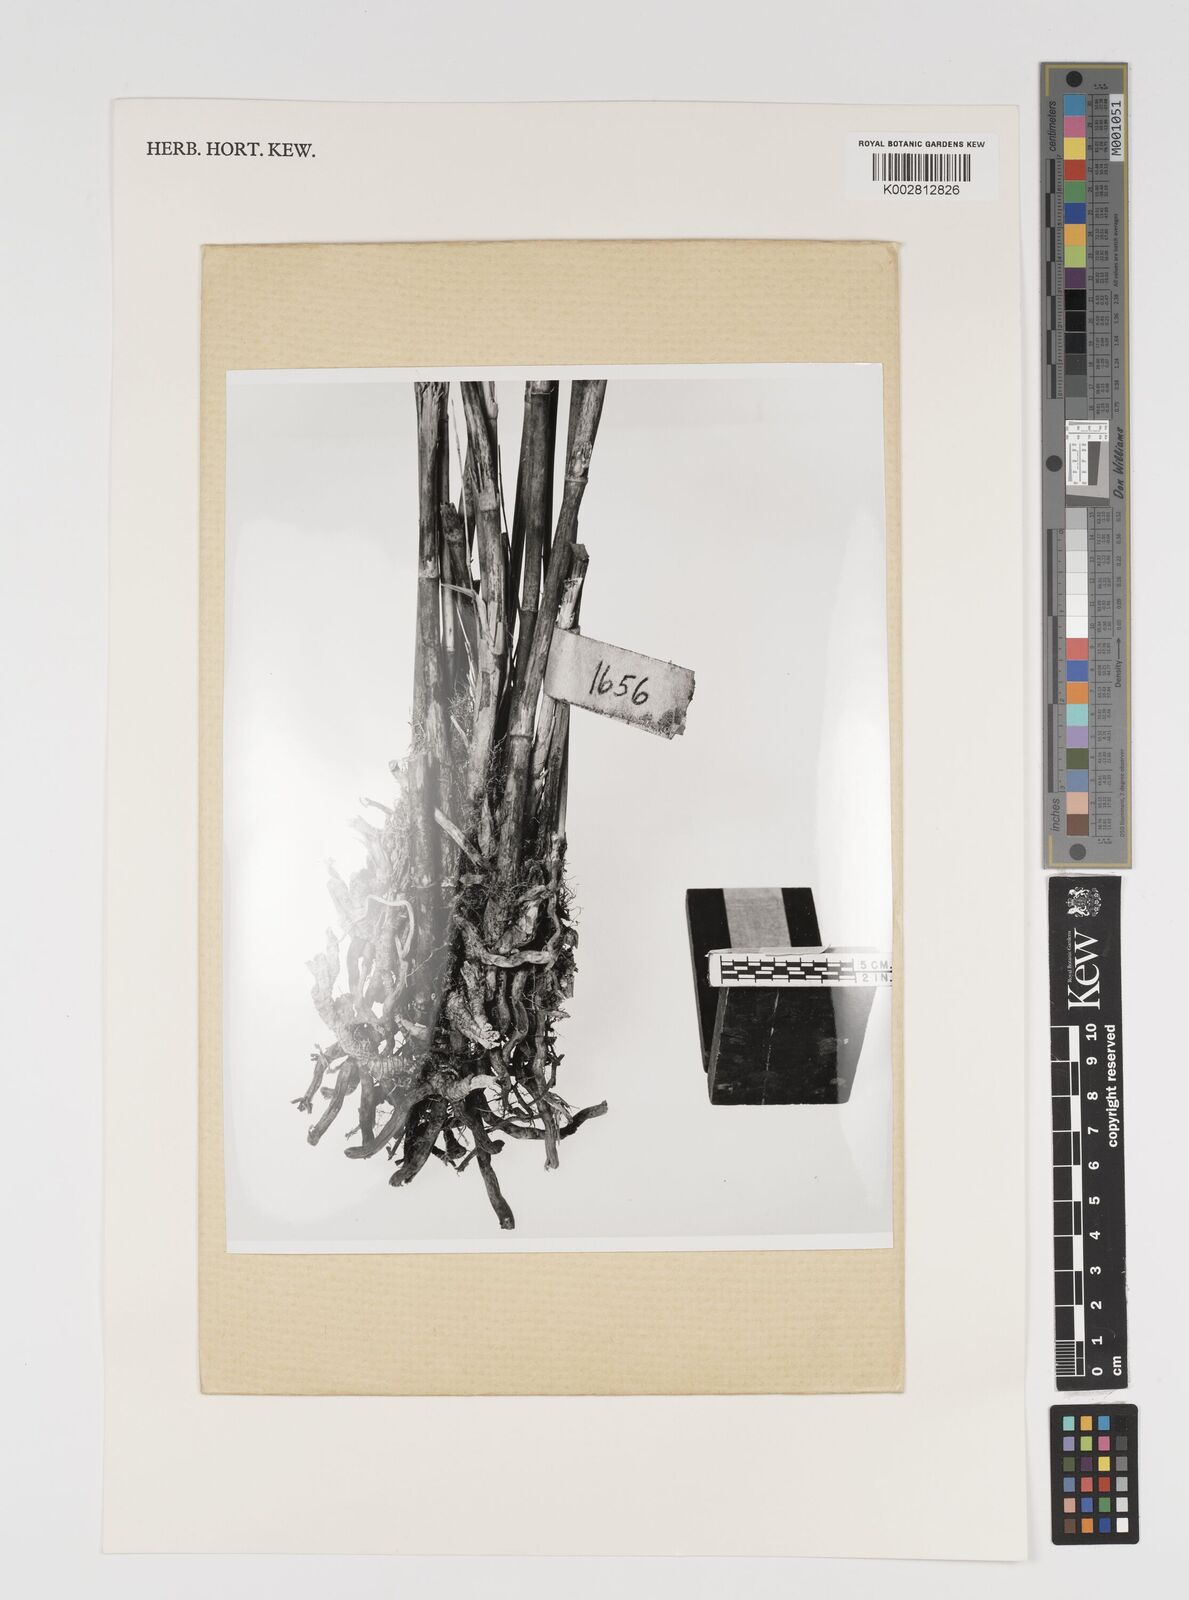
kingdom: Plantae
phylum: Tracheophyta
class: Liliopsida
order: Poales
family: Poaceae
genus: Brachystachyum
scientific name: Brachystachyum densiflorum
